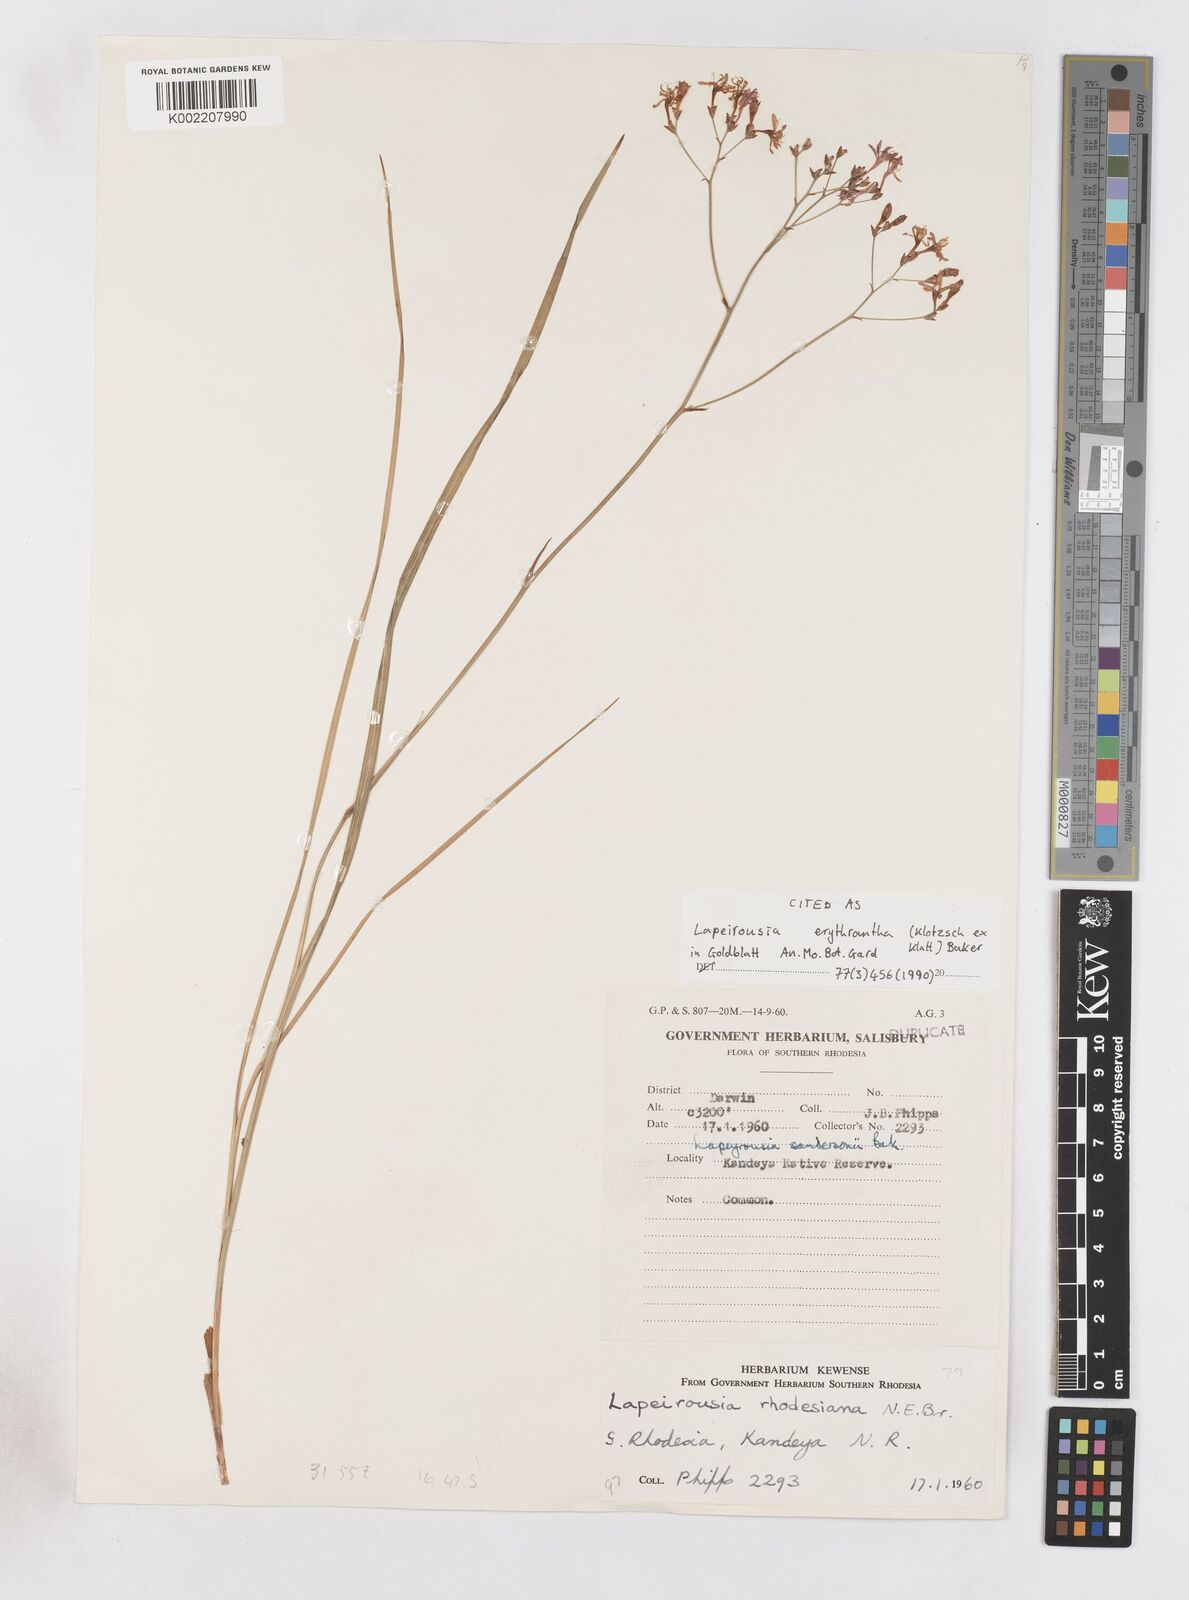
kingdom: Plantae
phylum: Tracheophyta
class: Liliopsida
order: Asparagales
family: Iridaceae
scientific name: Iridaceae
